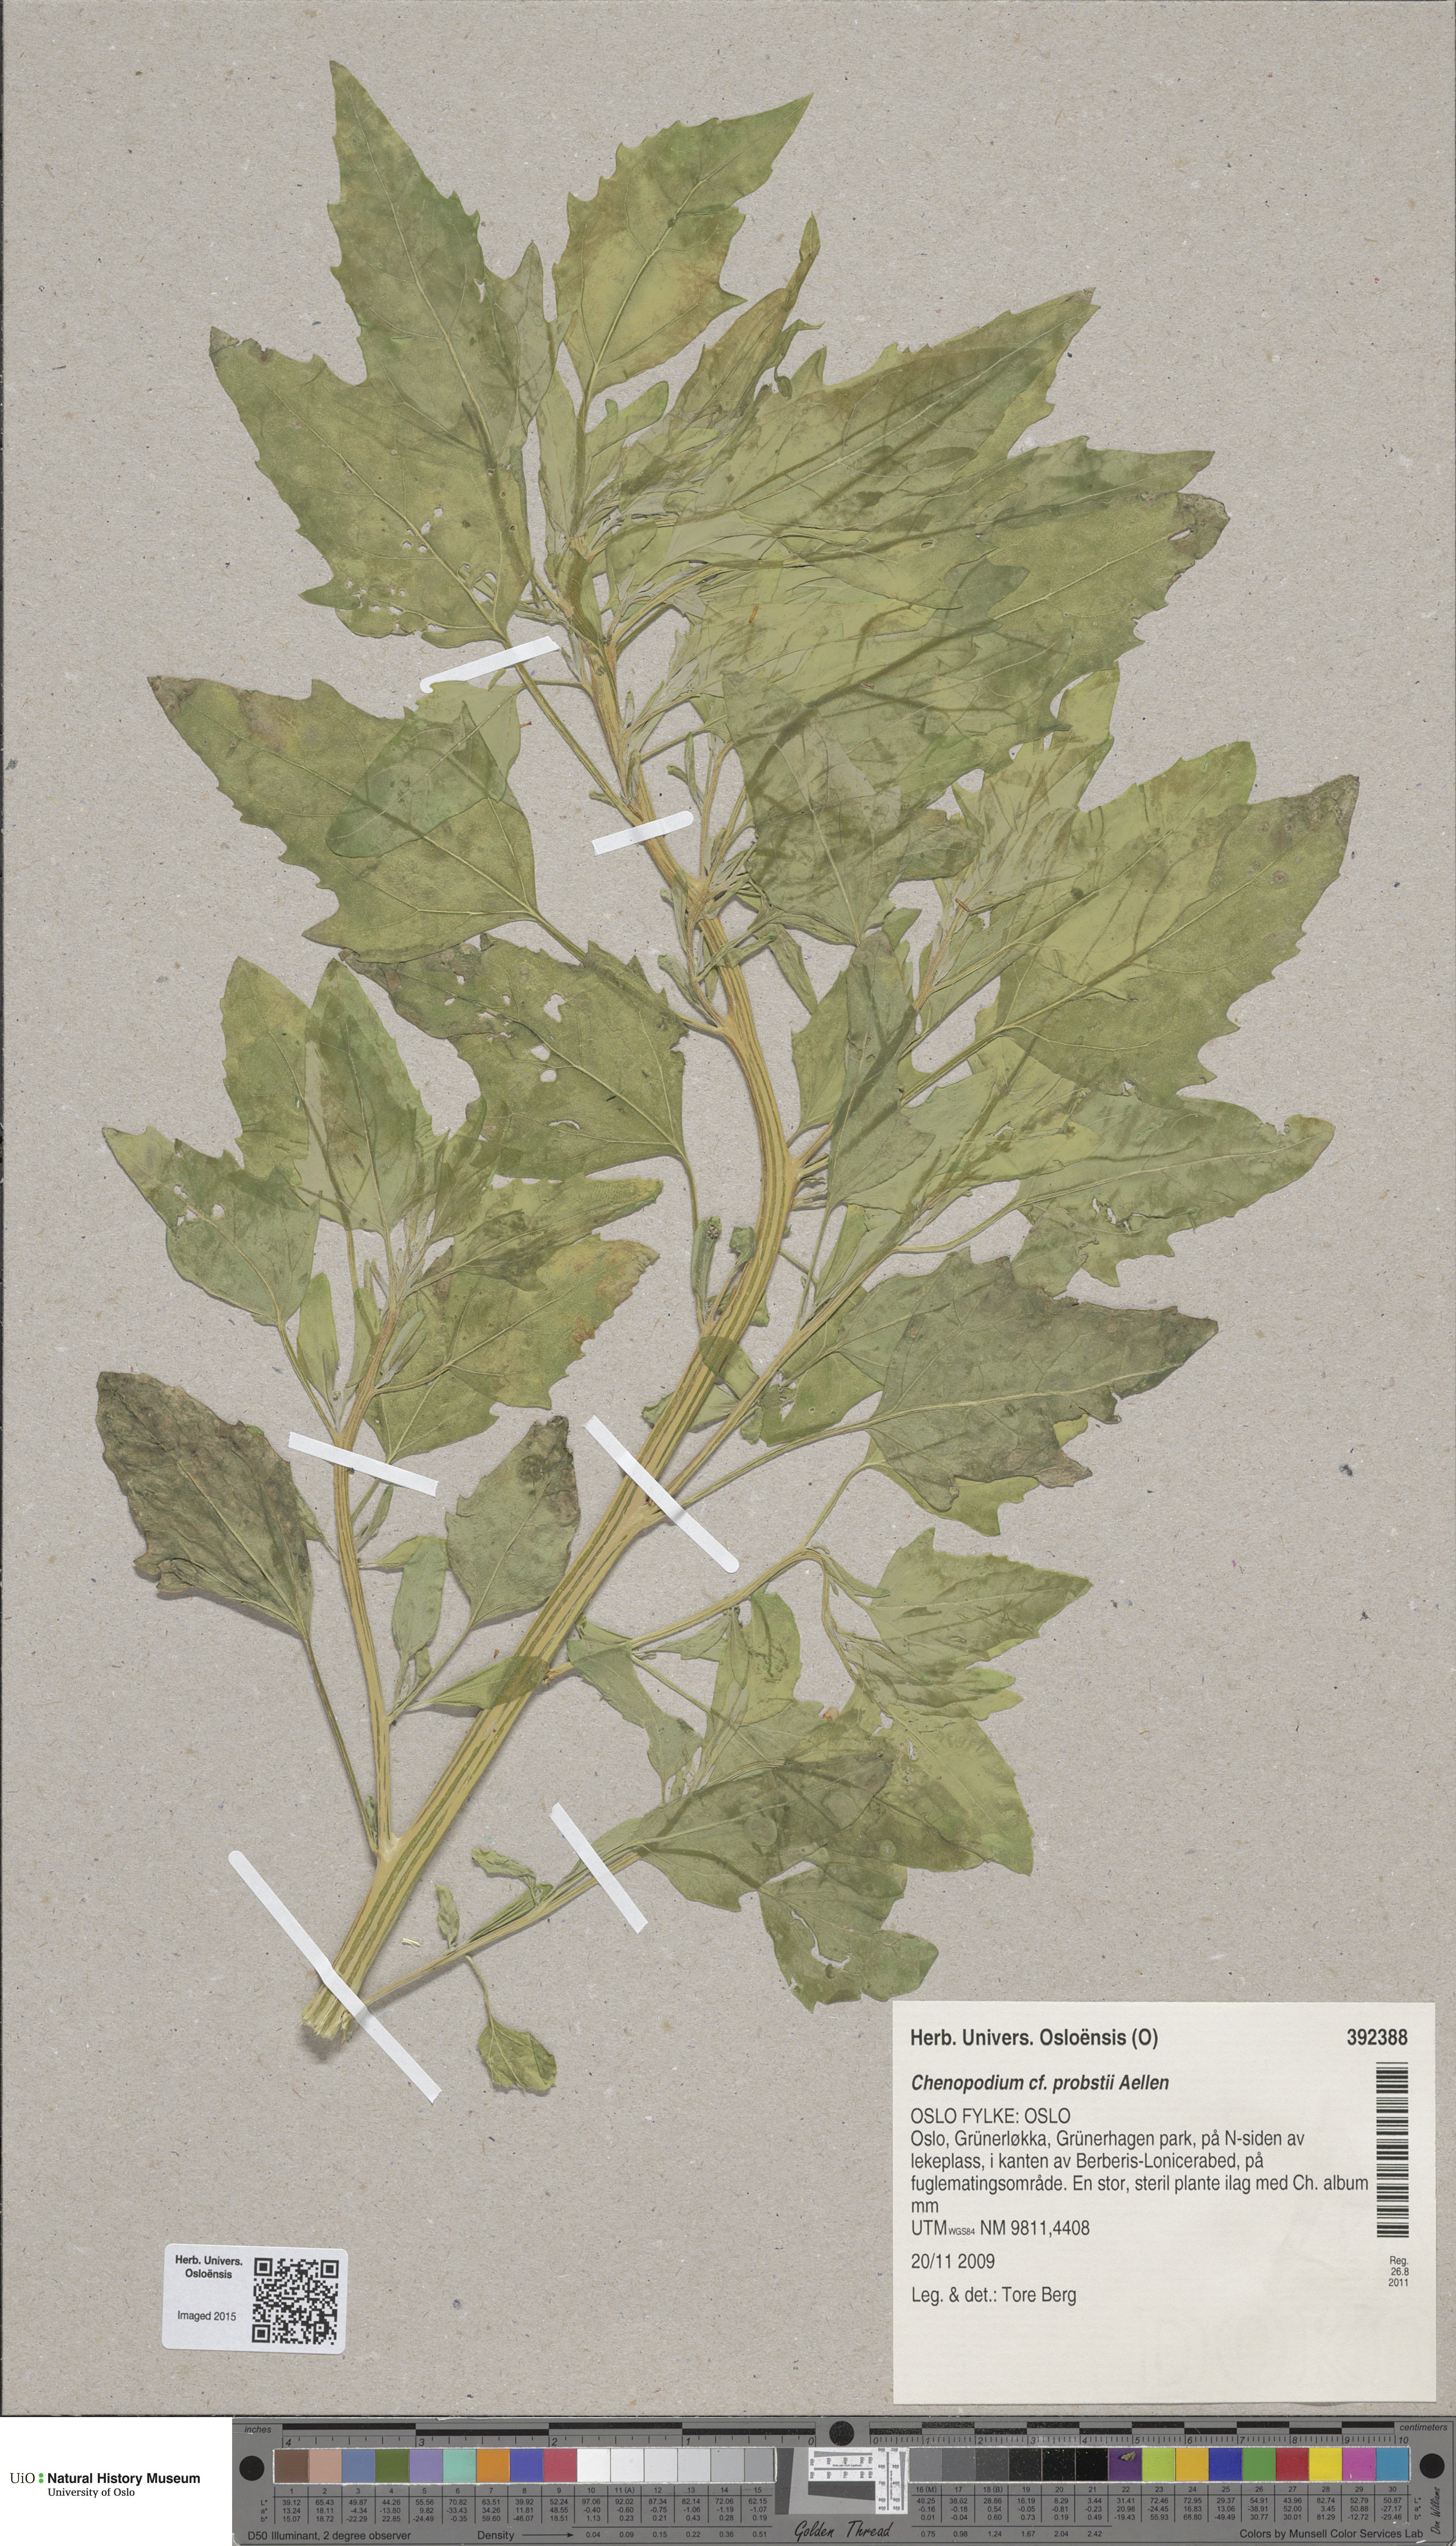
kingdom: Plantae
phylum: Tracheophyta
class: Magnoliopsida
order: Caryophyllales
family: Amaranthaceae
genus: Chenopodium
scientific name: Chenopodium probstii
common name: Probst's goosefoot
